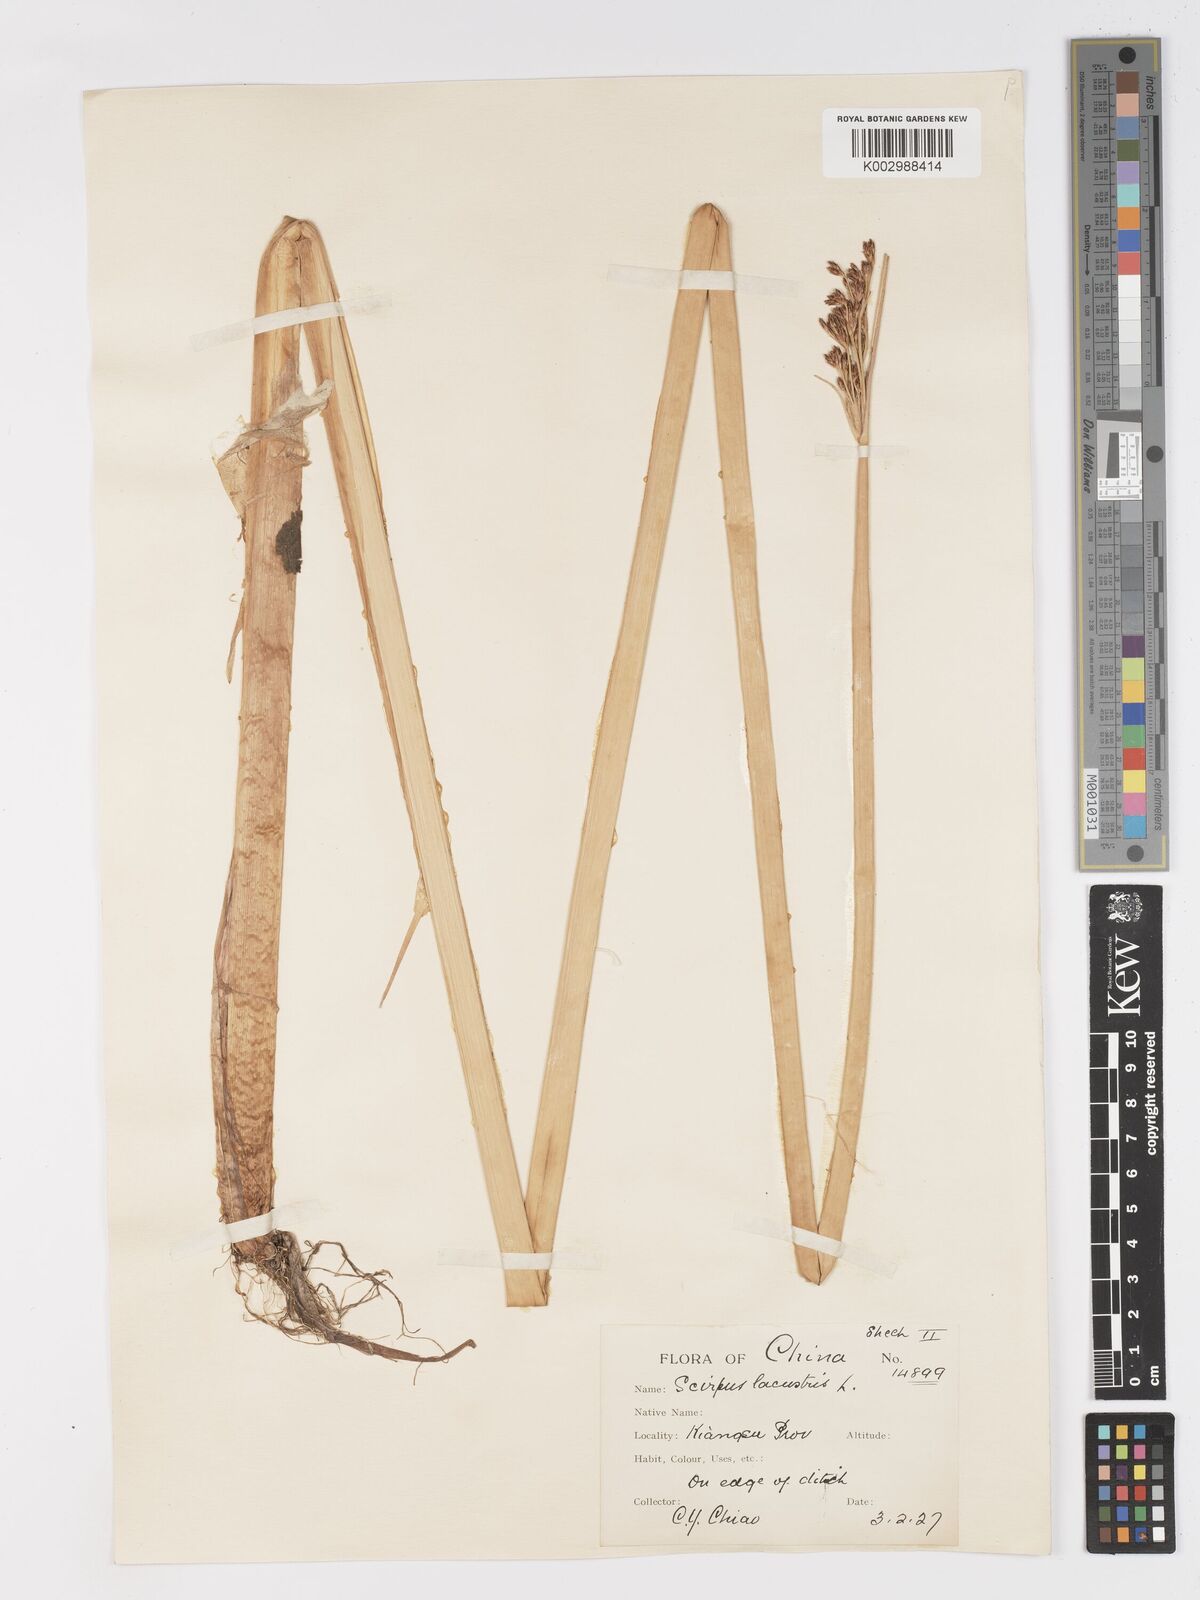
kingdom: Plantae
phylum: Tracheophyta
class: Liliopsida
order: Poales
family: Cyperaceae
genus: Schoenoplectus
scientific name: Schoenoplectus lacustris
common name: Common club-rush
